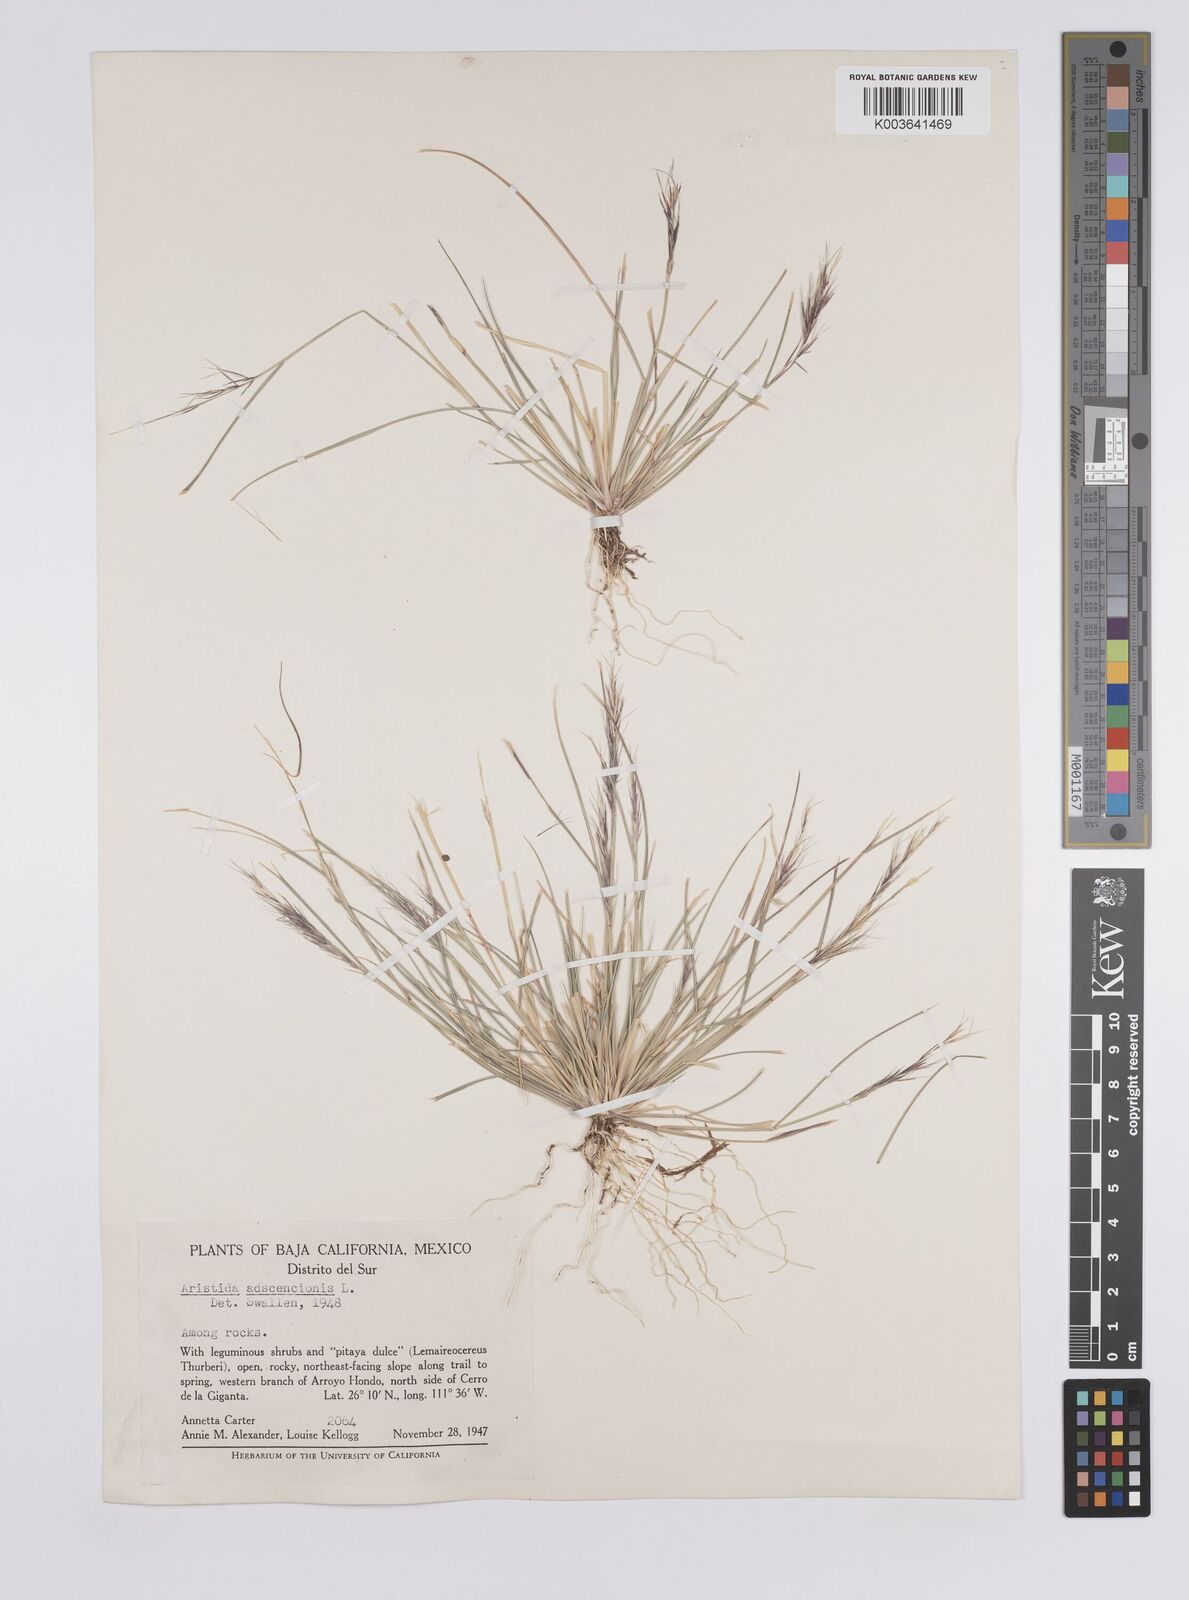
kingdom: Plantae
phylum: Tracheophyta
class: Liliopsida
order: Poales
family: Poaceae
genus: Aristida
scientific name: Aristida adscensionis
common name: Sixweeks threeawn
